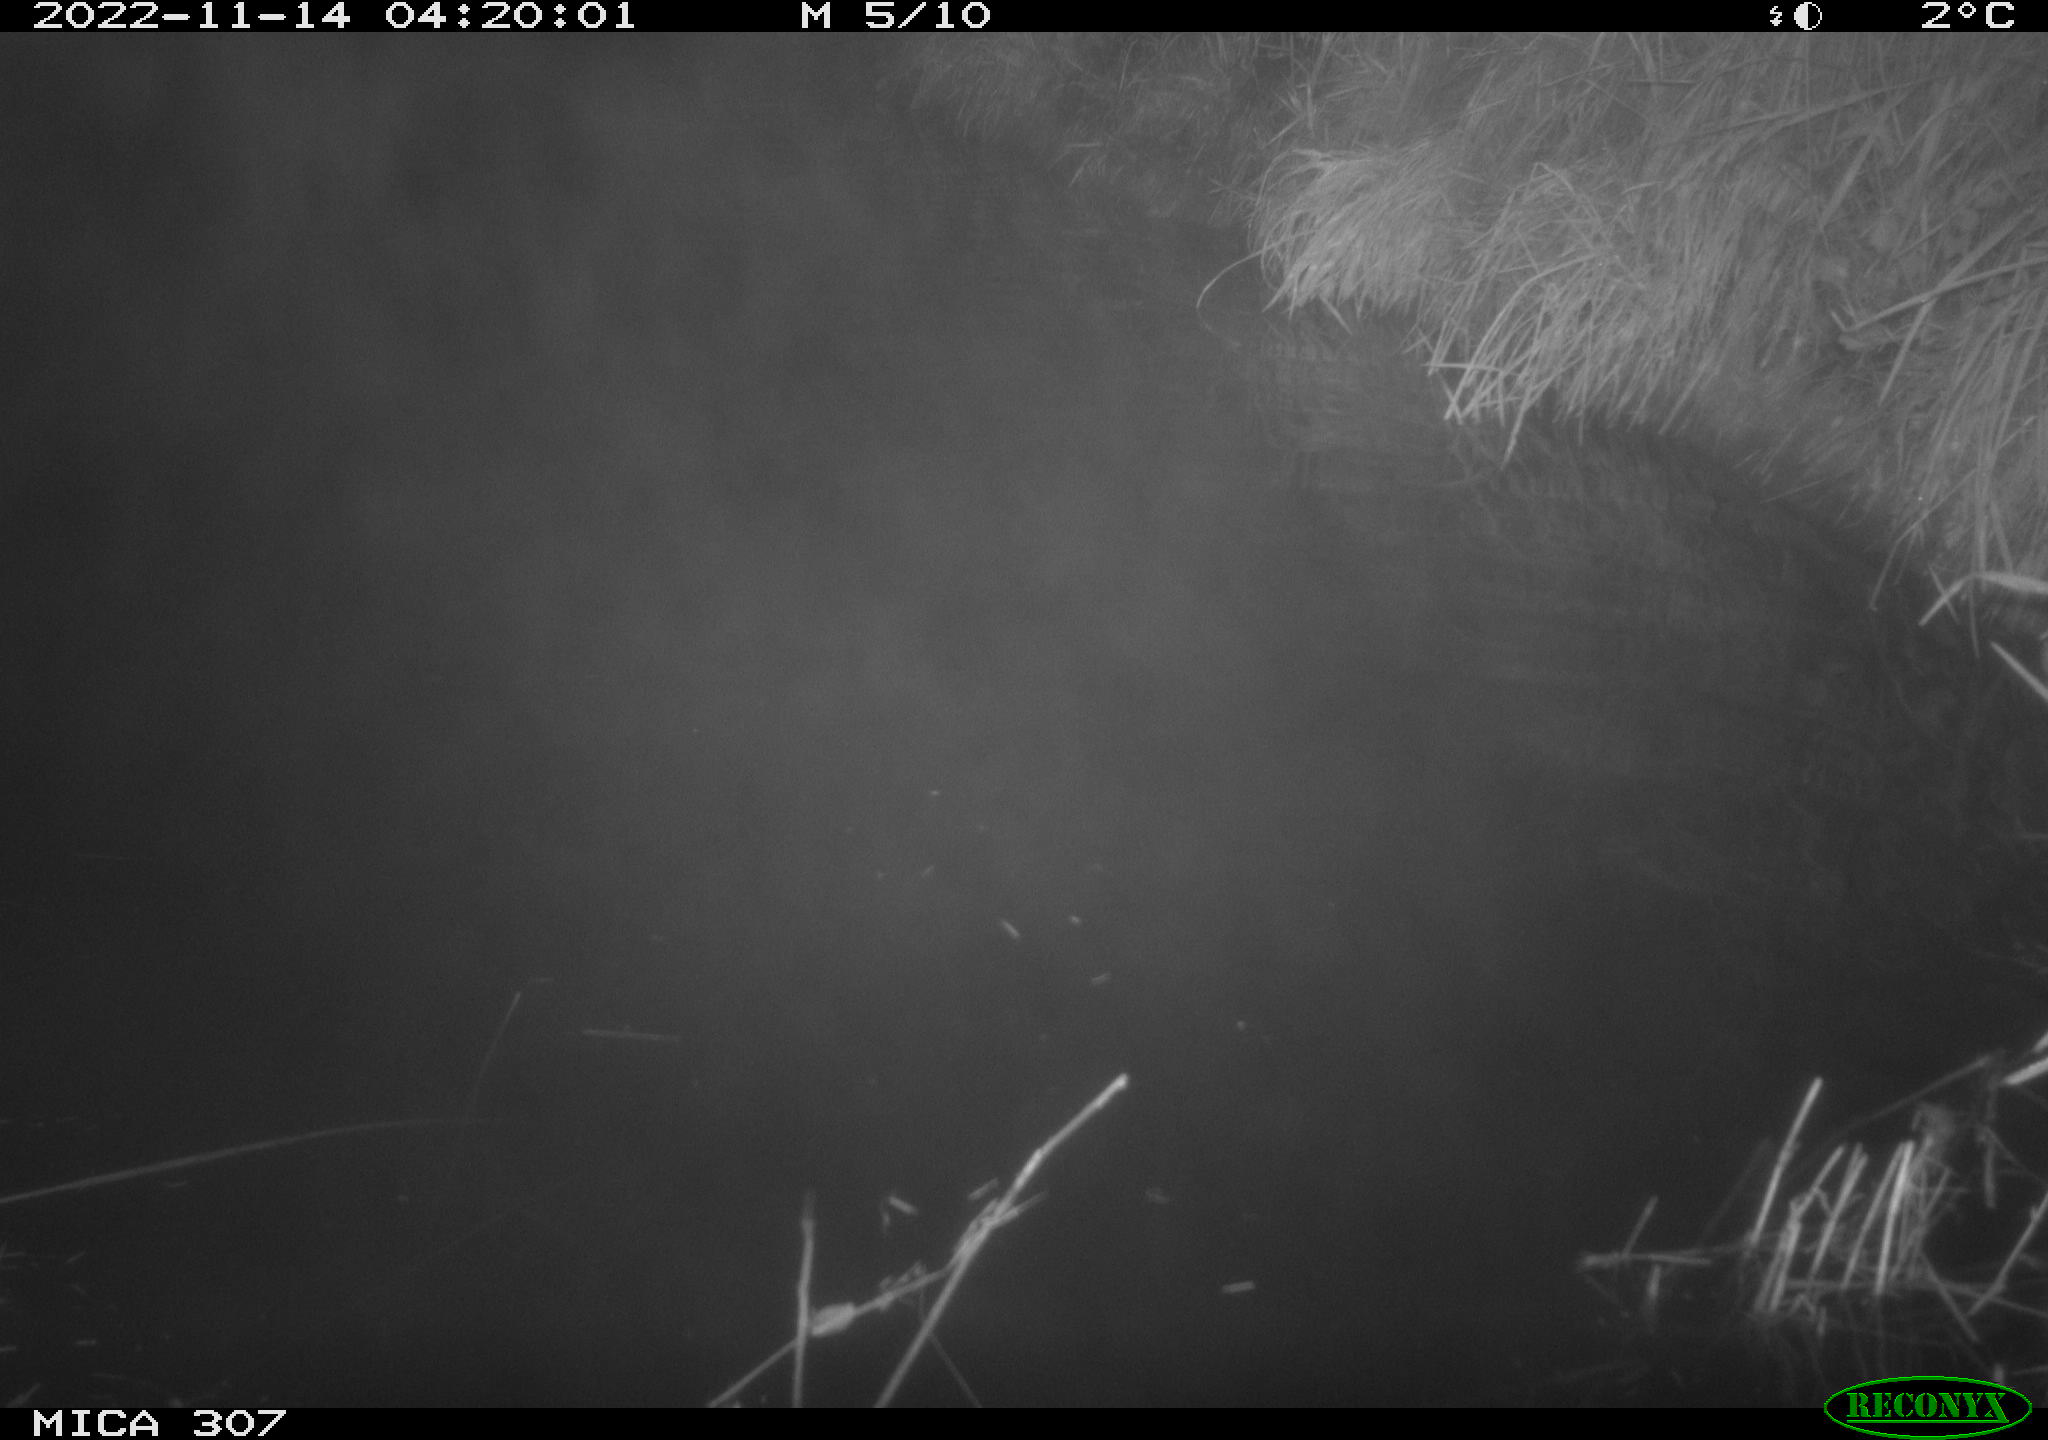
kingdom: Animalia
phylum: Chordata
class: Mammalia
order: Rodentia
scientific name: Rodentia
